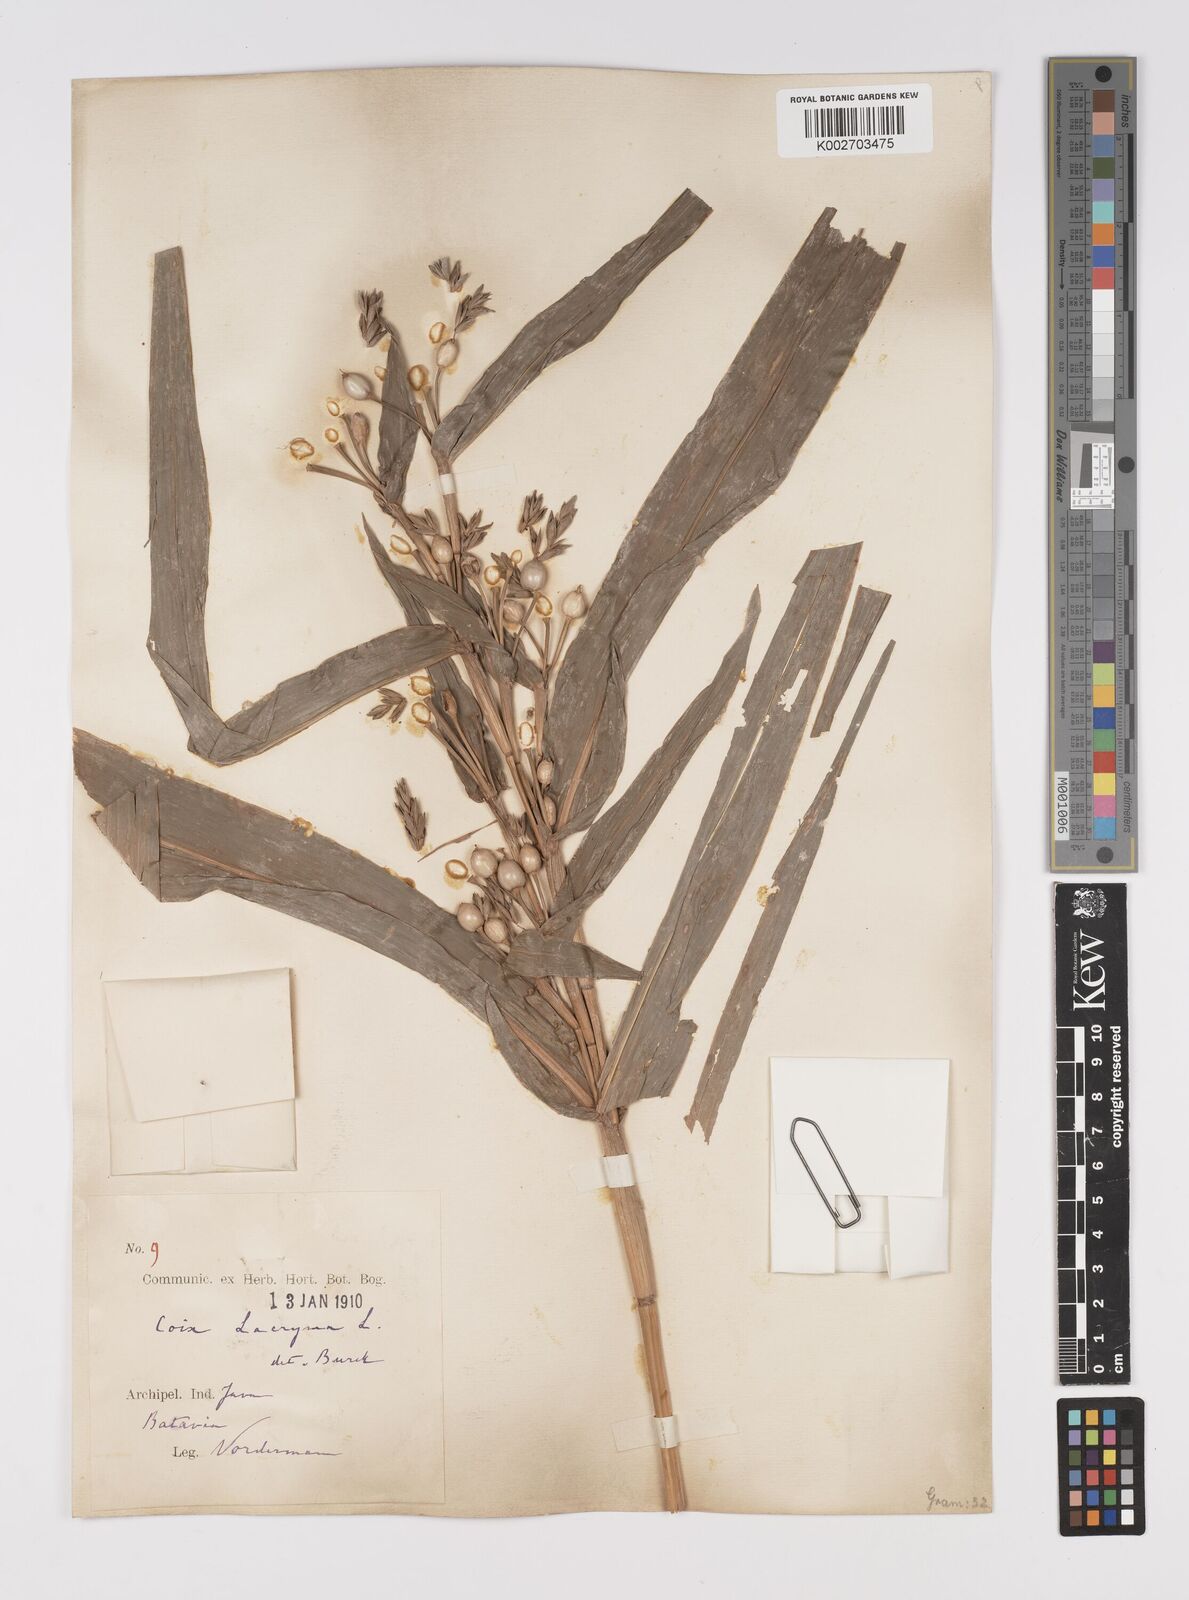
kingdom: Plantae
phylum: Tracheophyta
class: Liliopsida
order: Poales
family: Poaceae
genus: Coix
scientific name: Coix lacryma-jobi
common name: Job's tears
